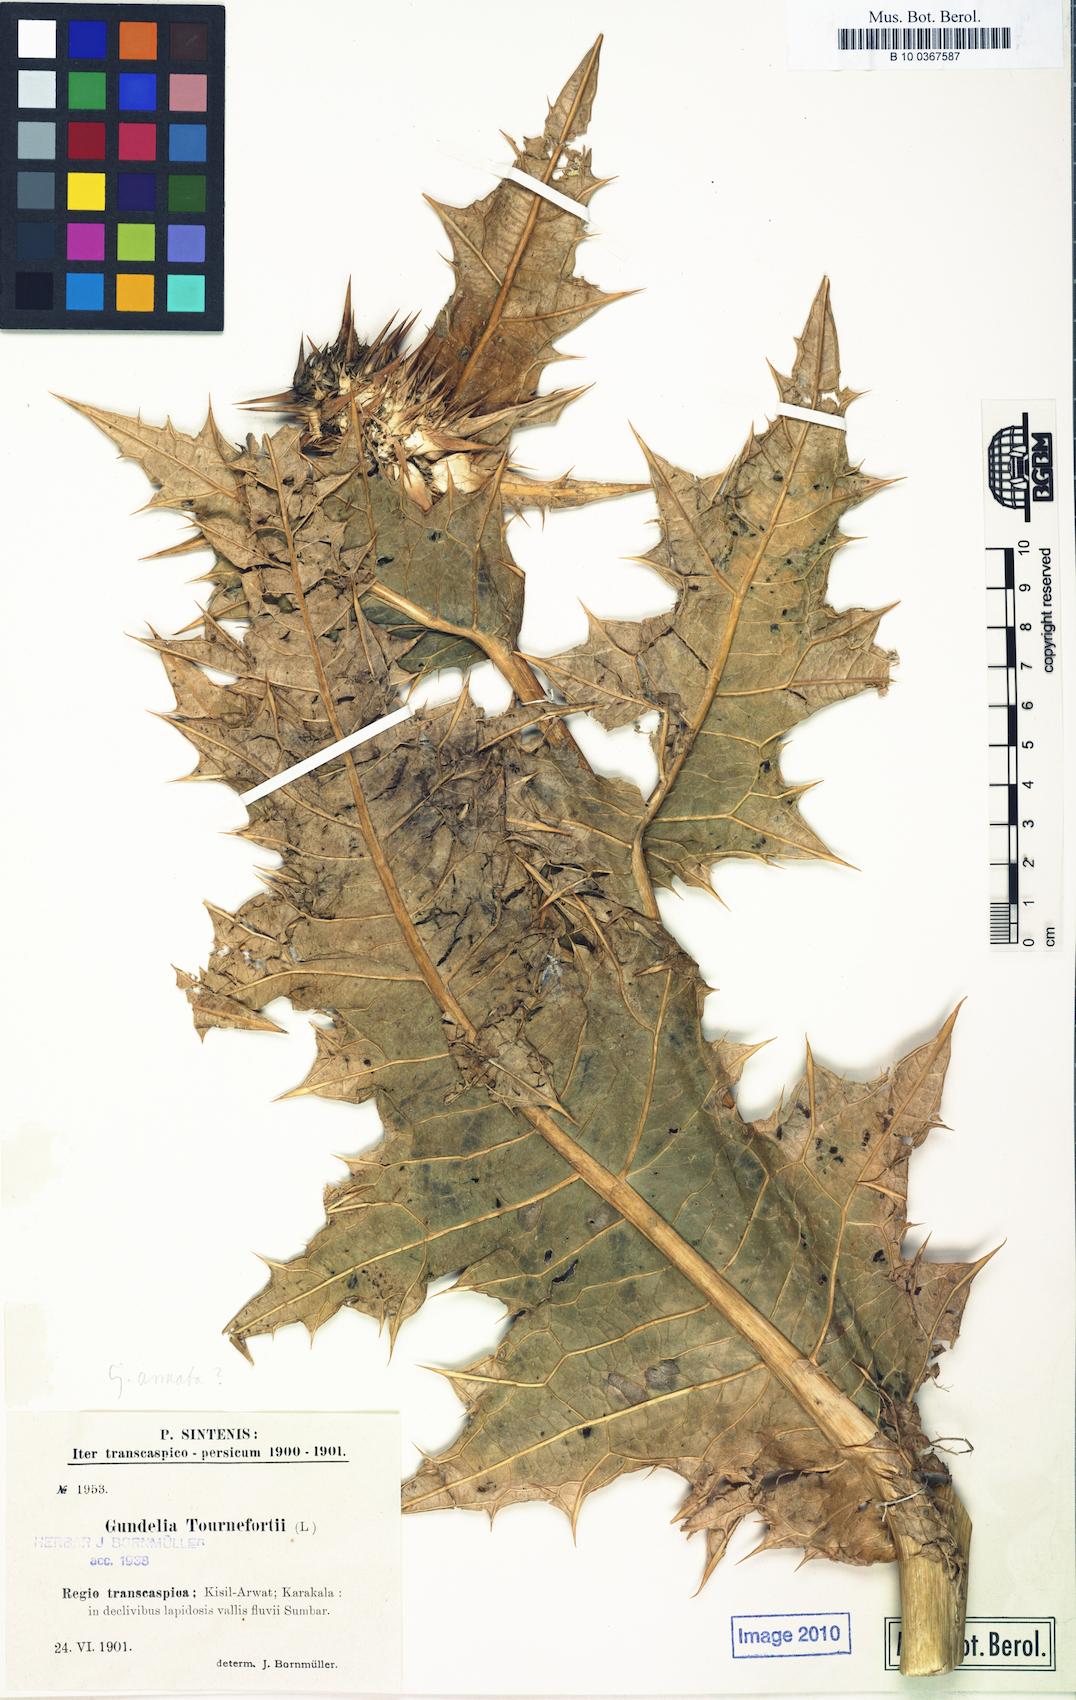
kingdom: Plantae
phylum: Tracheophyta
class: Magnoliopsida
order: Asterales
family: Asteraceae
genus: Gundelia
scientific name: Gundelia tournefortii
